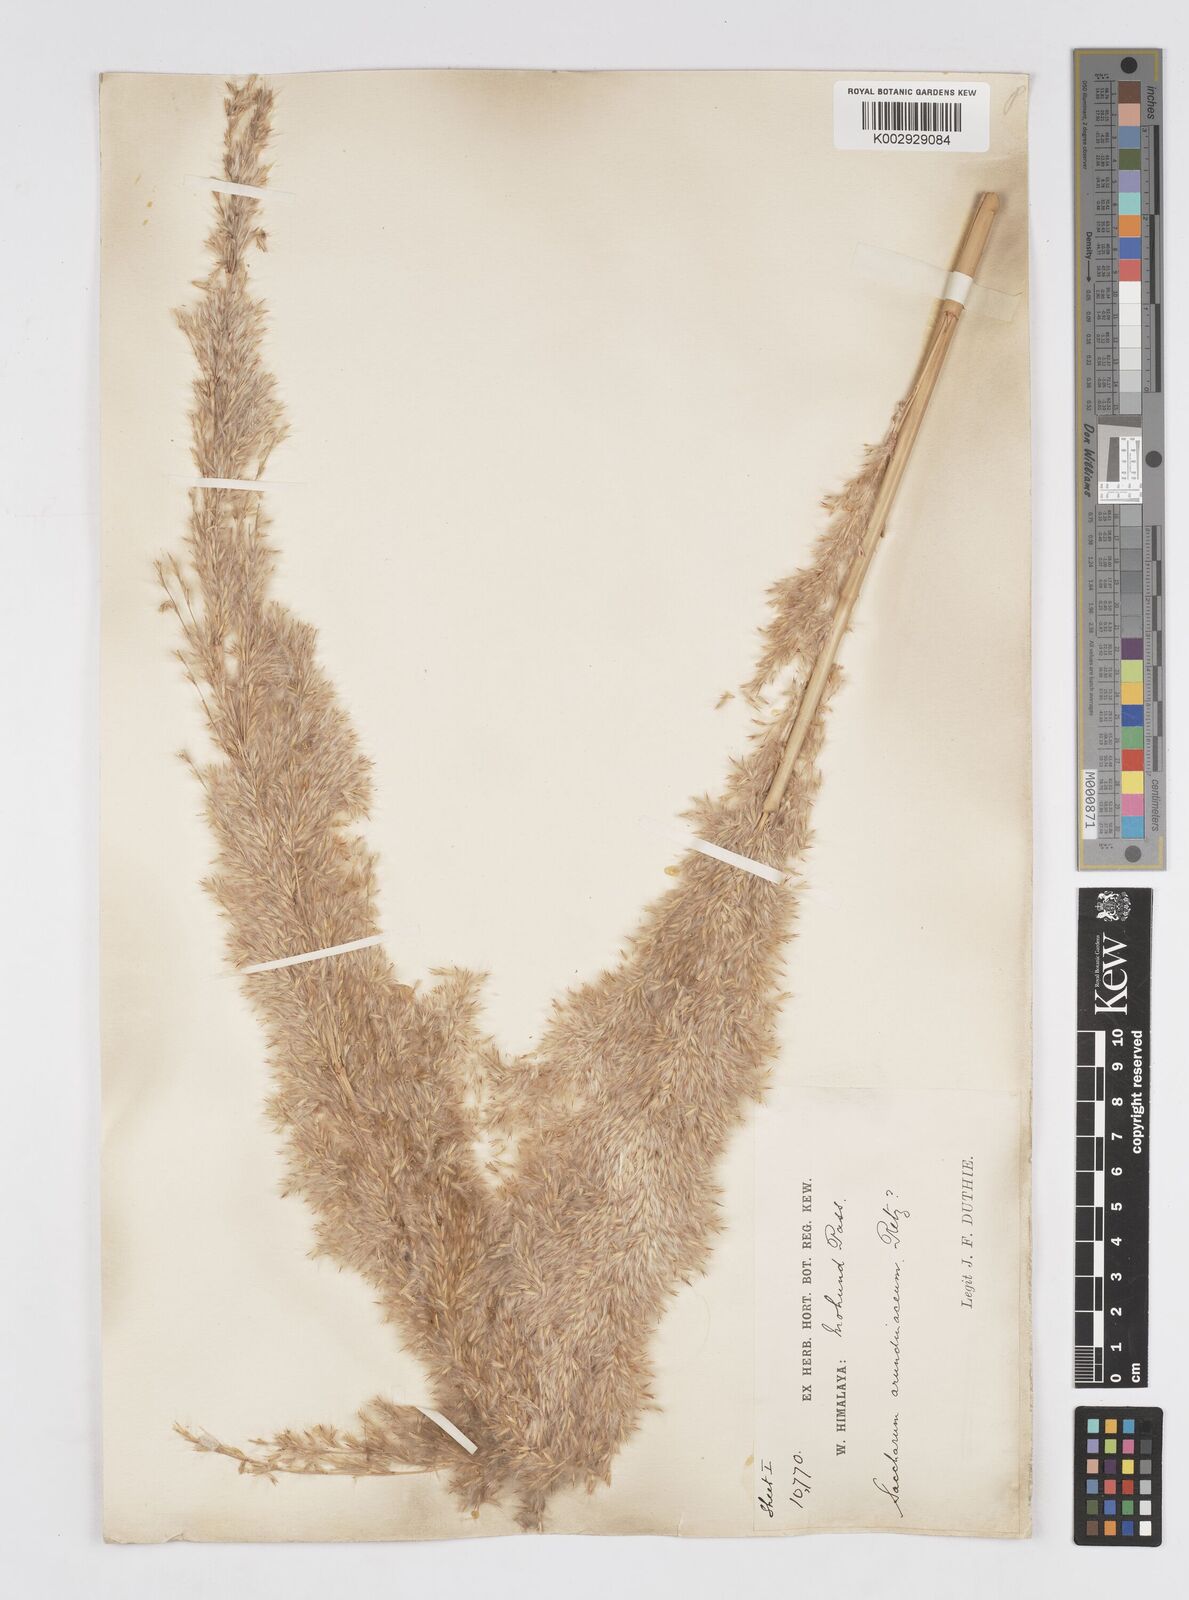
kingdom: Plantae
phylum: Tracheophyta
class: Liliopsida
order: Poales
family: Poaceae
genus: Tripidium
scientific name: Tripidium bengalense
